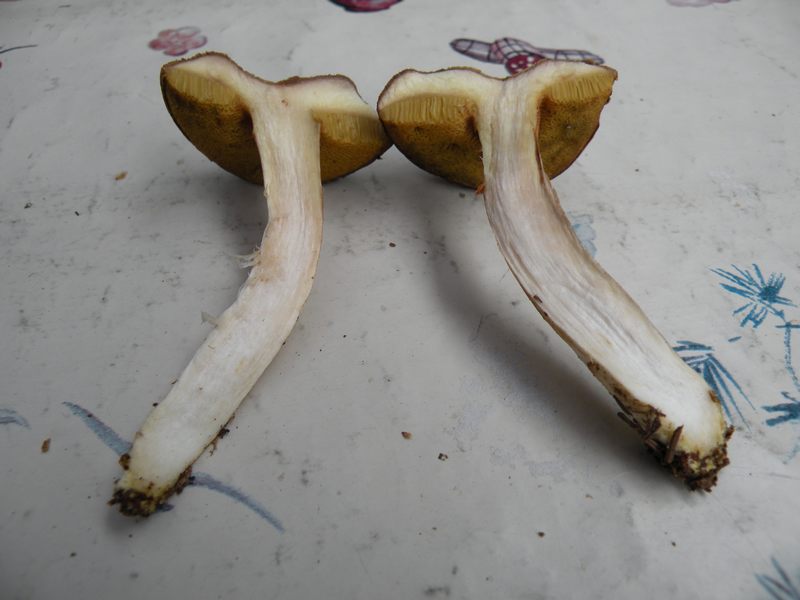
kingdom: Fungi
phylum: Basidiomycota
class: Agaricomycetes
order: Boletales
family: Boletaceae
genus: Xerocomus
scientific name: Xerocomus ferrugineus
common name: vaskeskinds-rørhat
